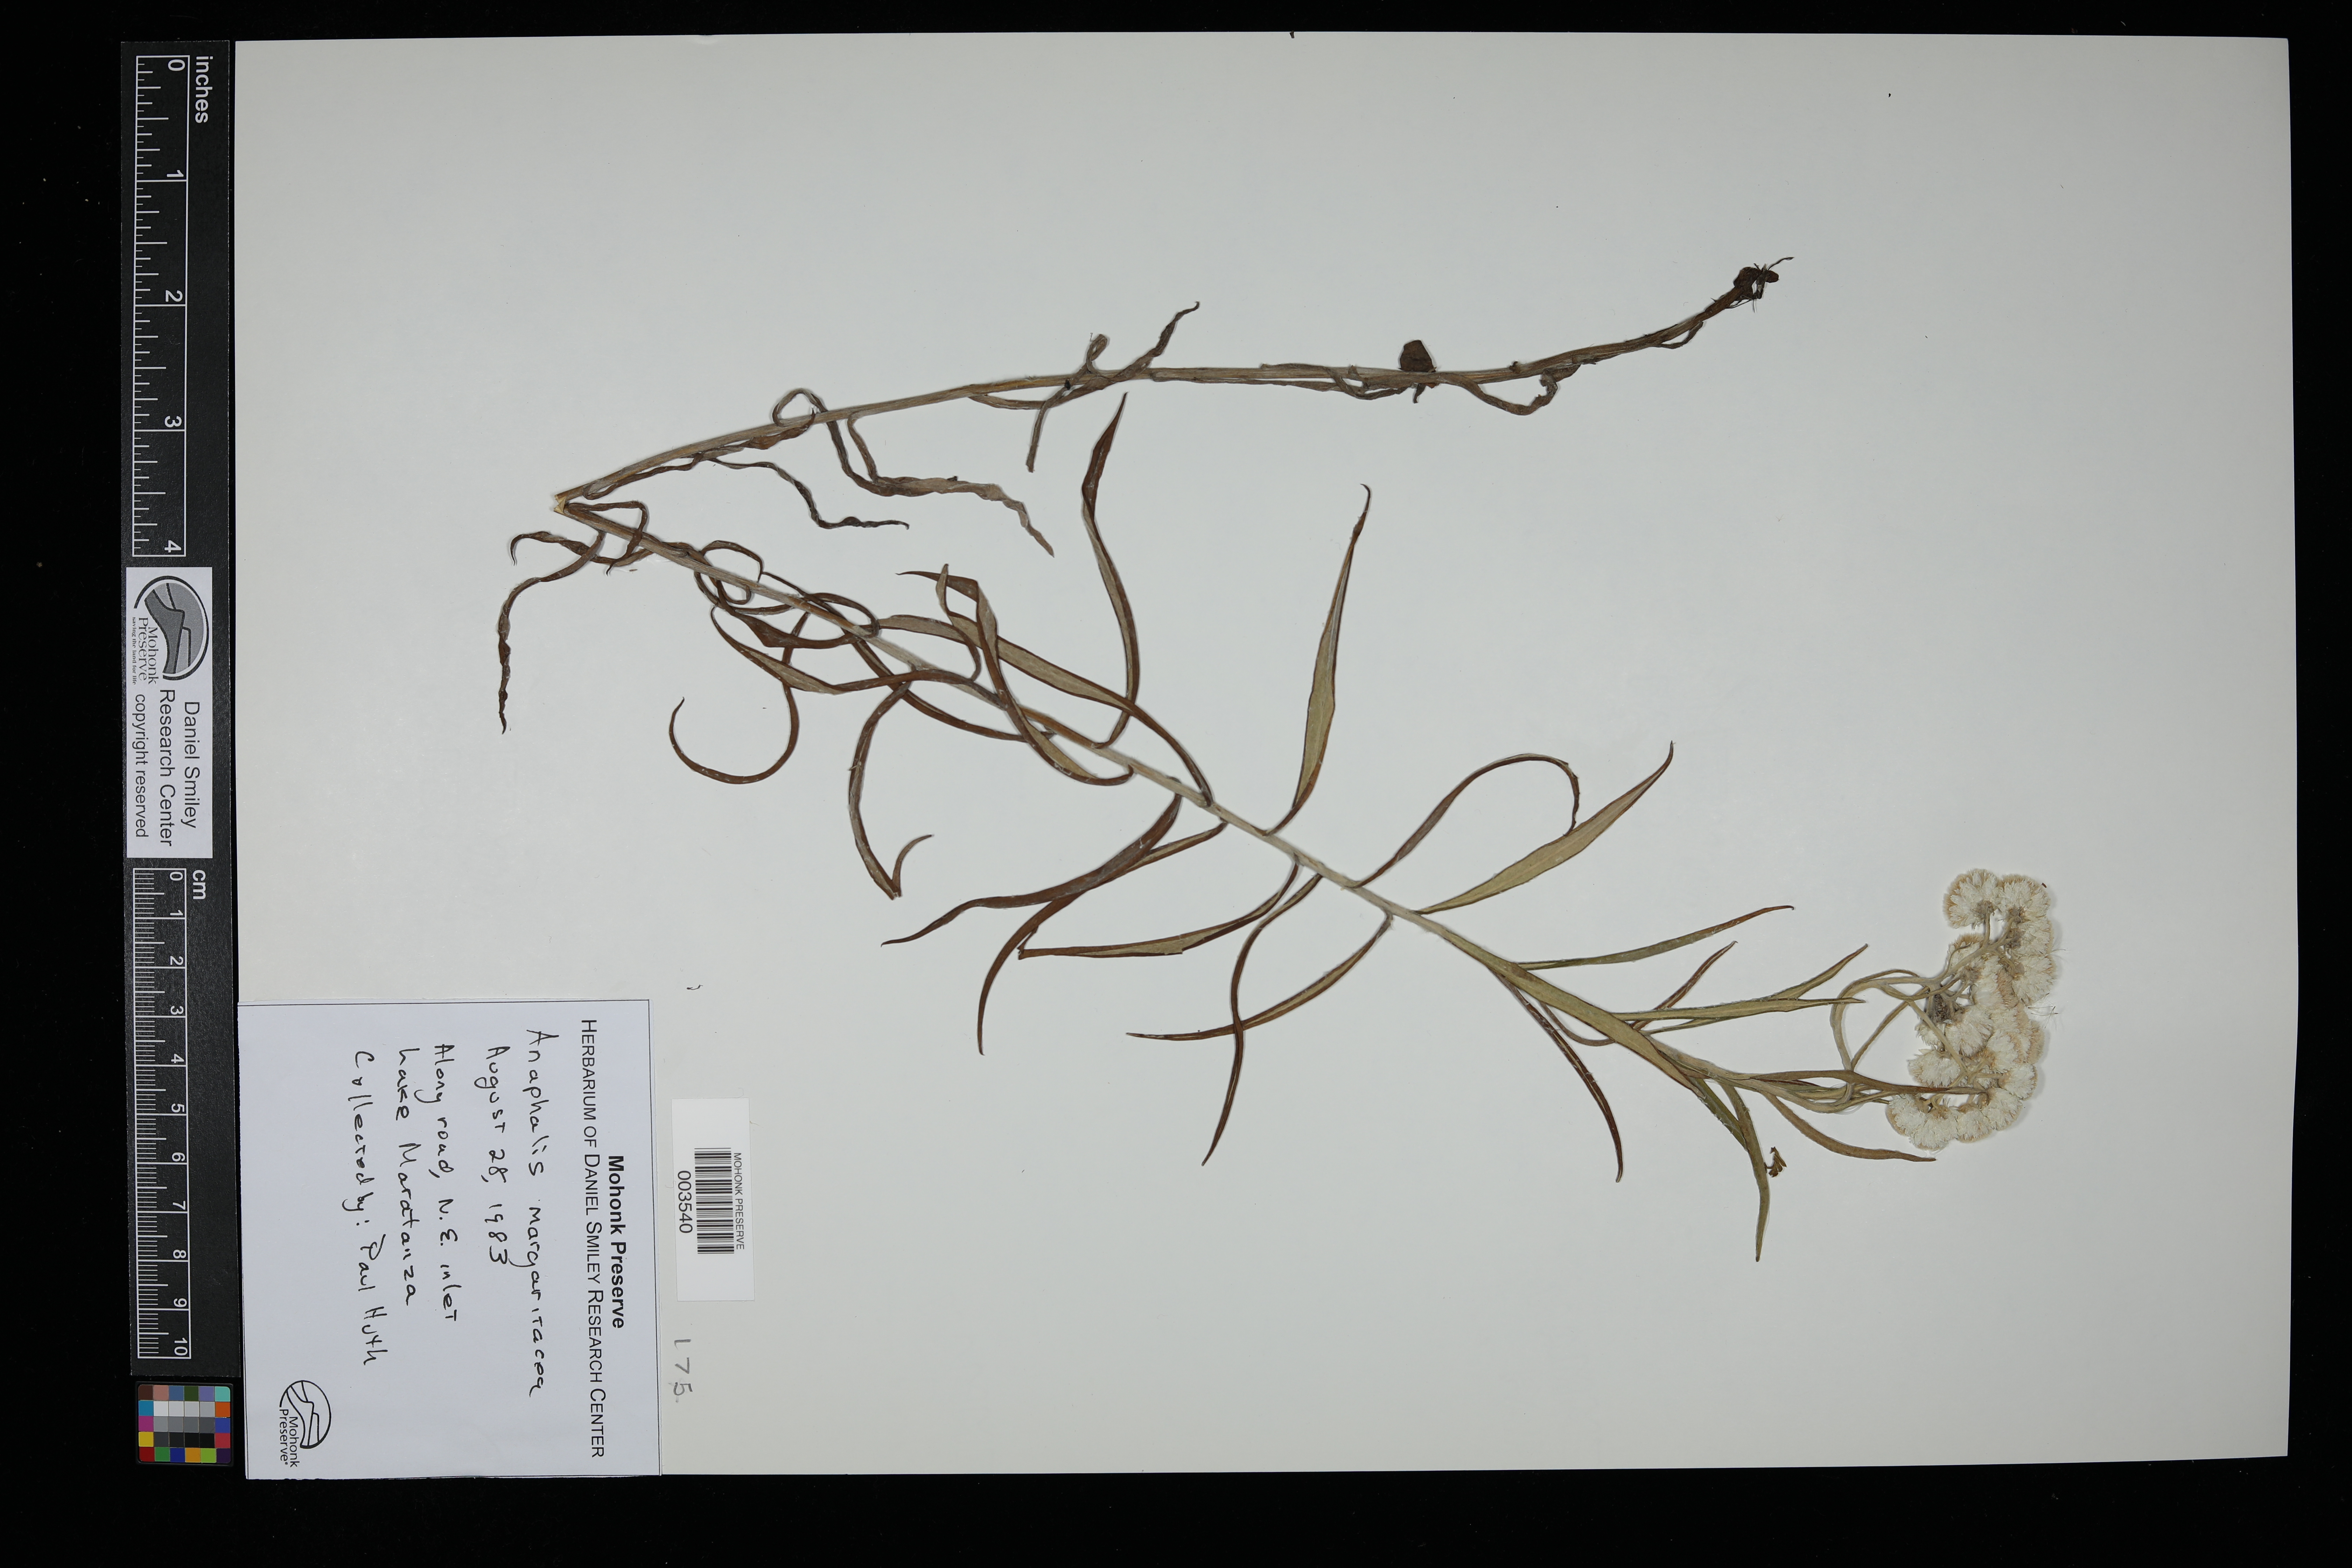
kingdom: Plantae
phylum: Tracheophyta
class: Magnoliopsida
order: Asterales
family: Asteraceae
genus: Anaphalis
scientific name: Anaphalis margaritacea
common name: Pearly everlasting
